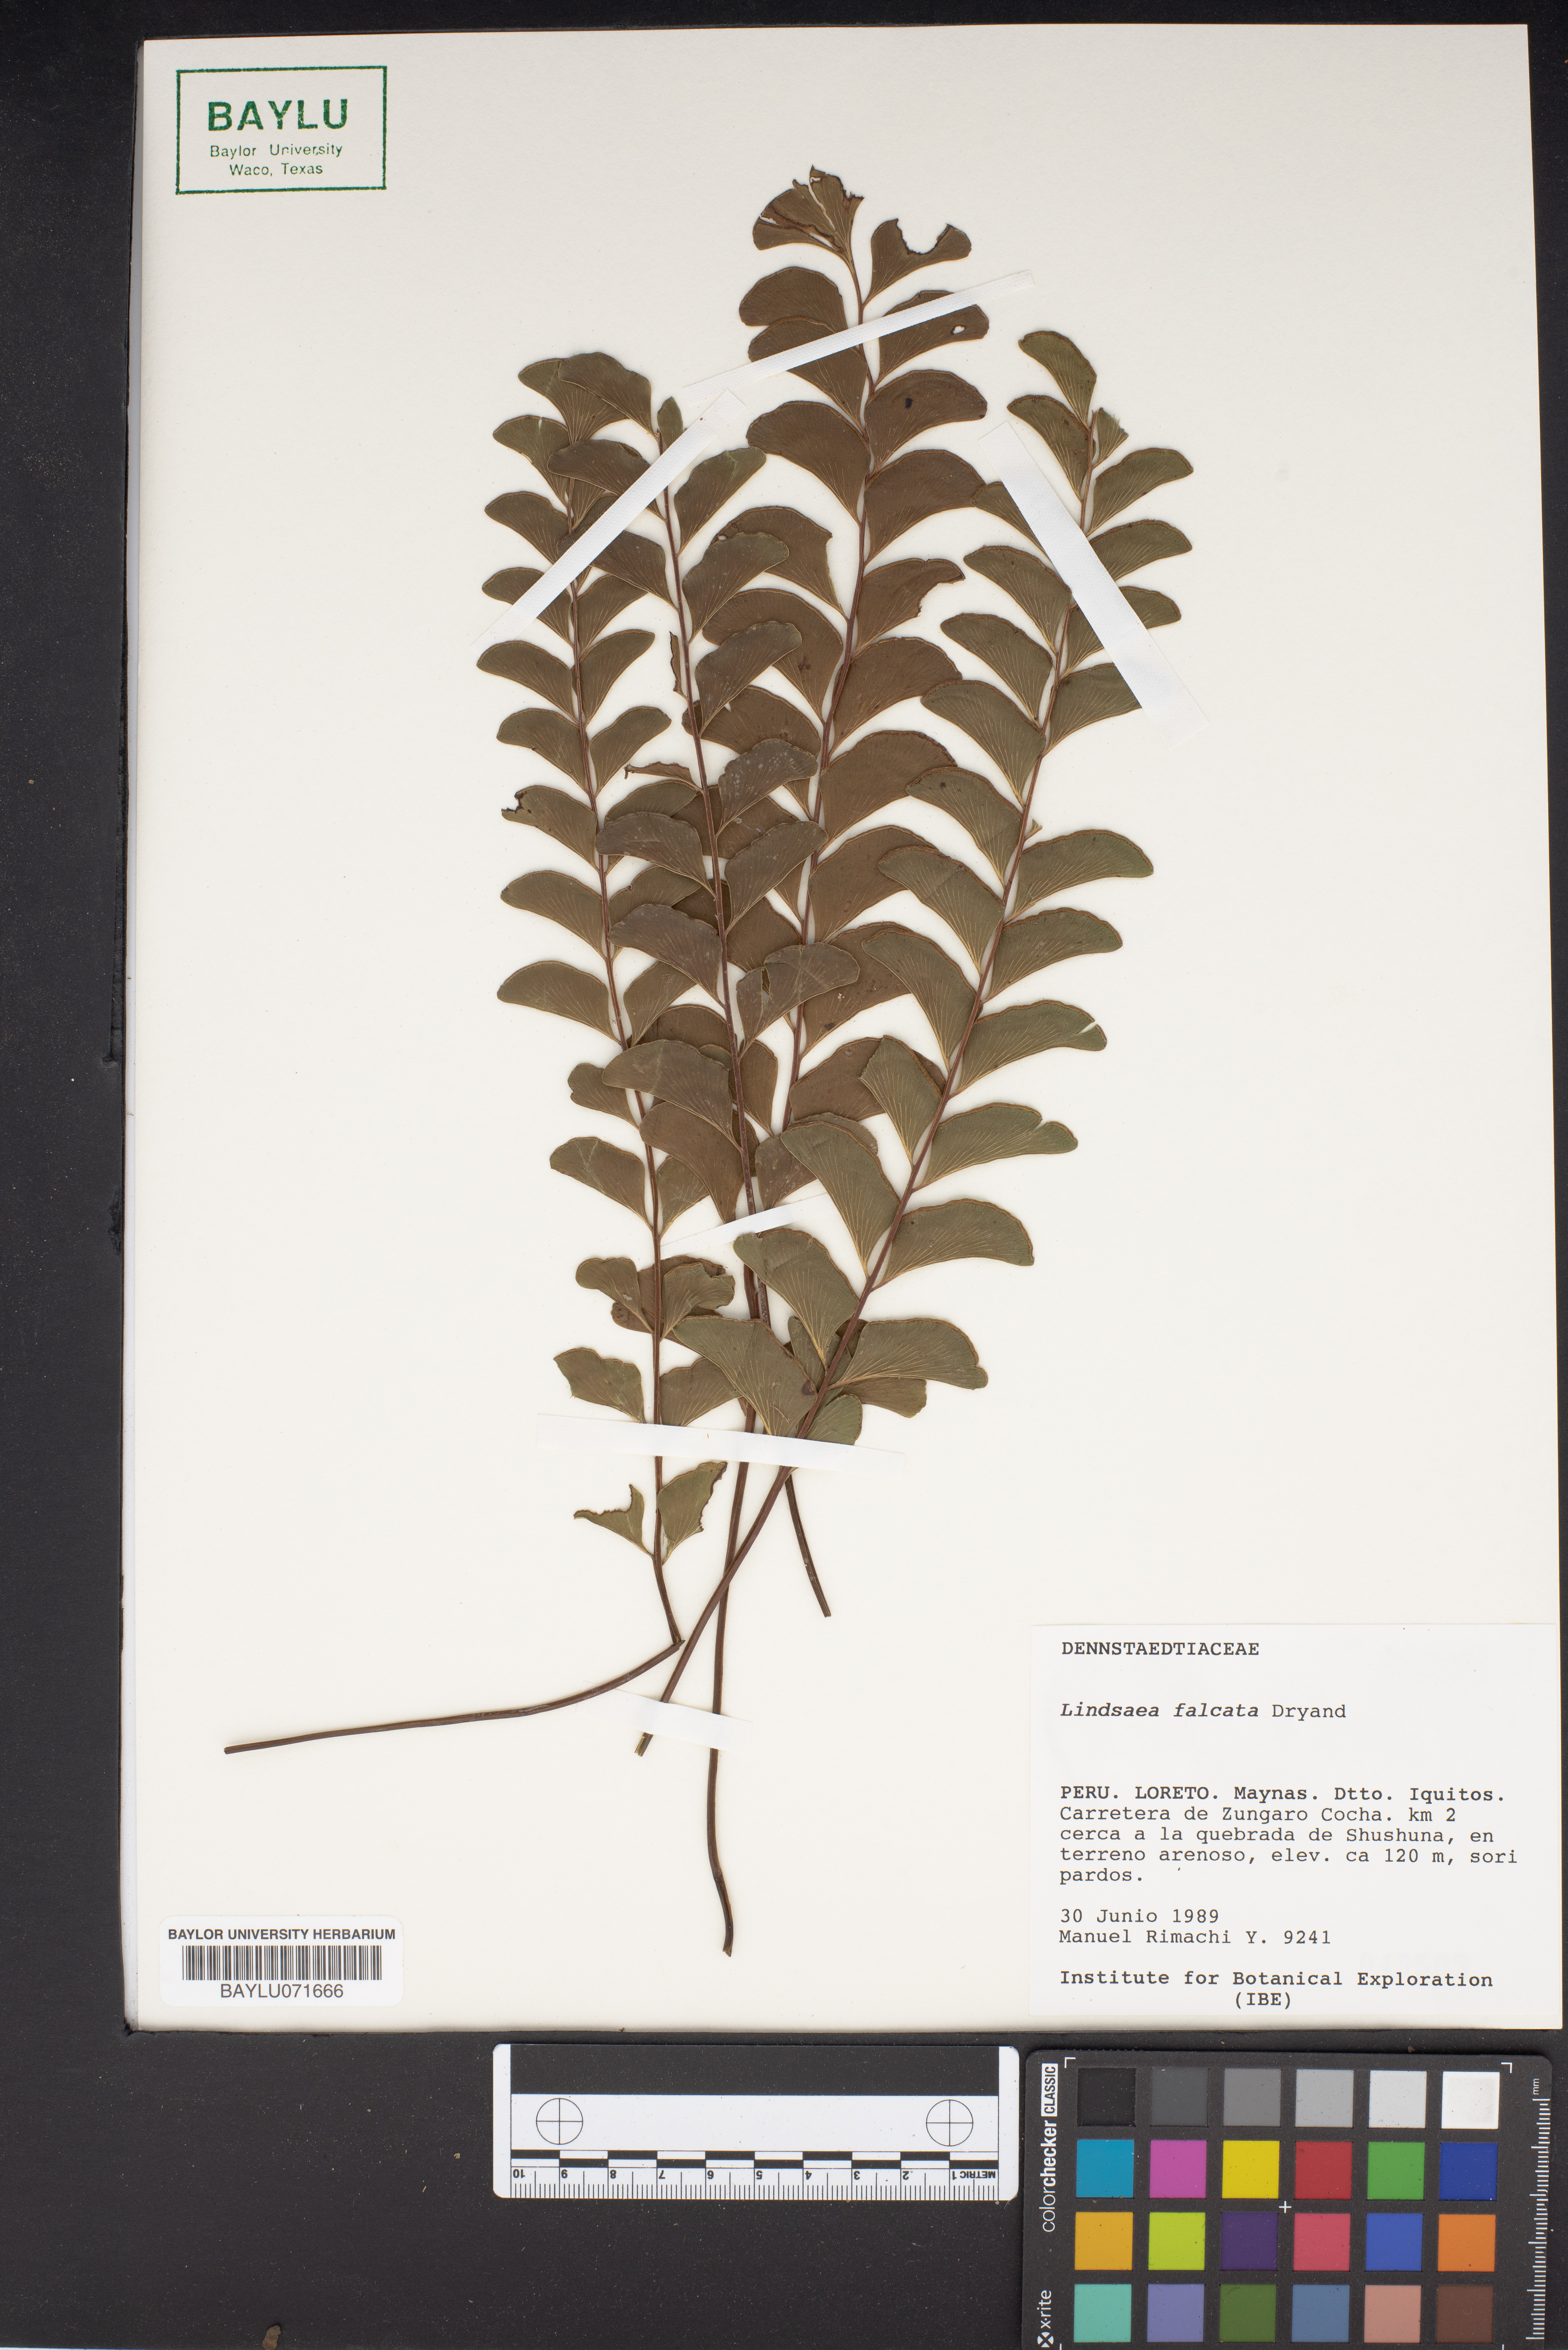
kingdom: Plantae
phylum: Tracheophyta
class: Polypodiopsida
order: Polypodiales
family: Lindsaeaceae
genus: Lindsaea
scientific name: Lindsaea falcata
